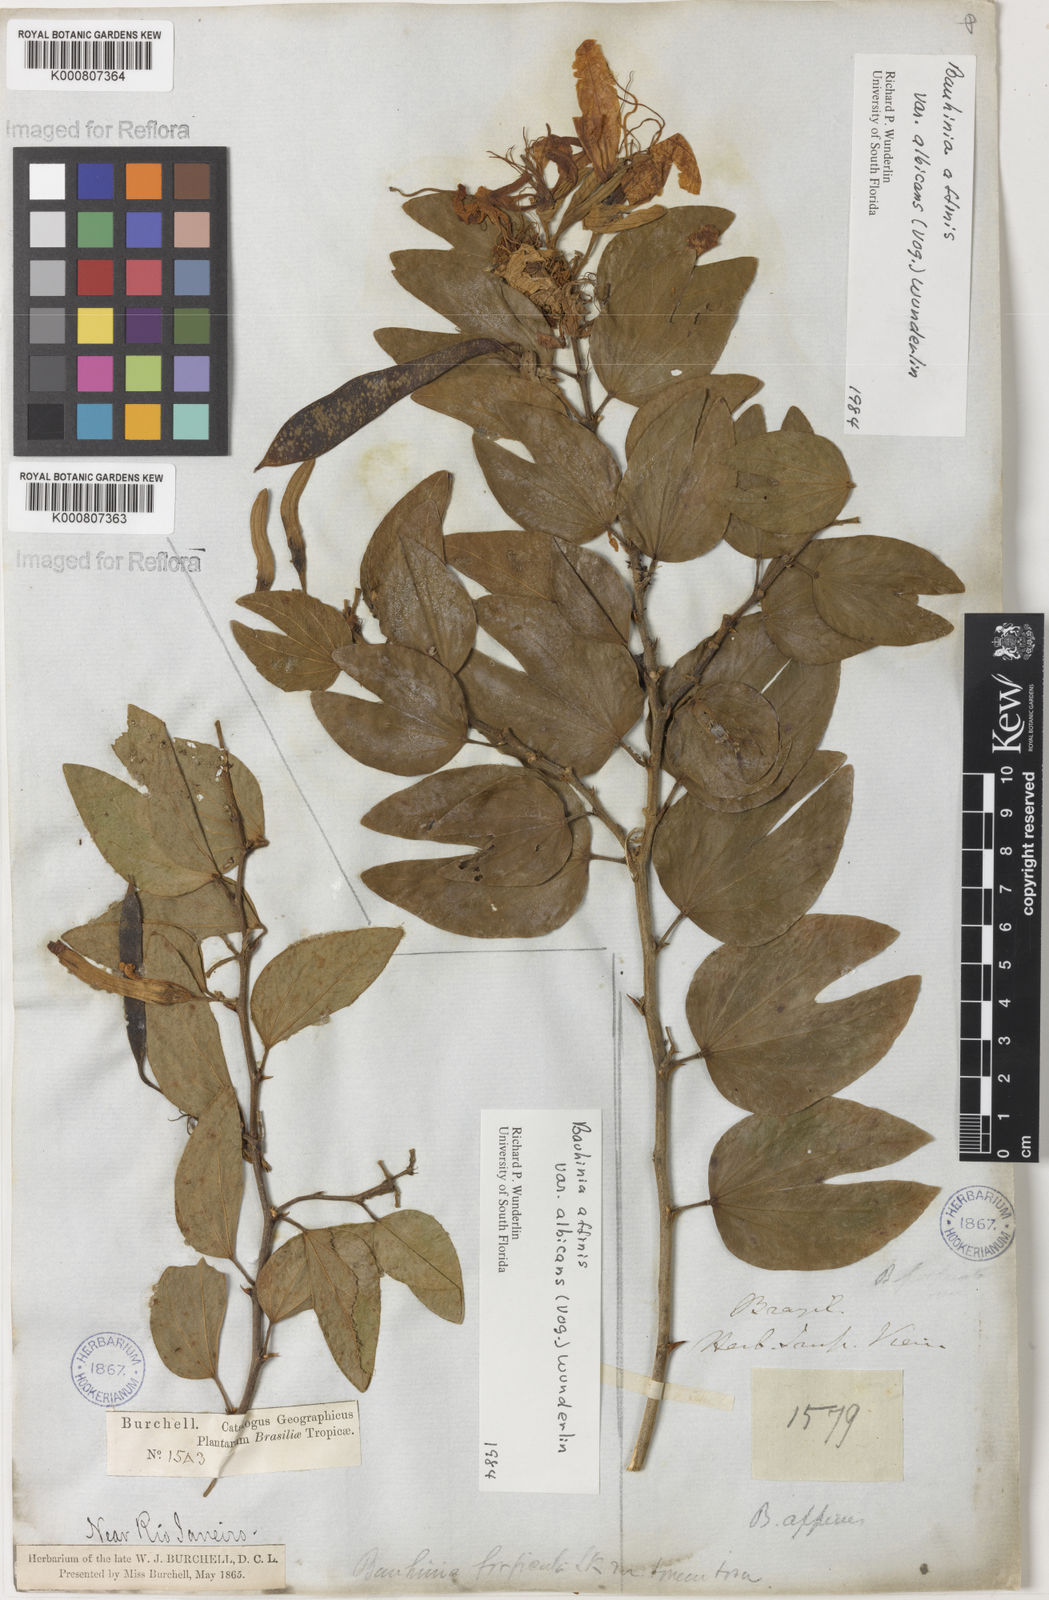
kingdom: Plantae
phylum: Tracheophyta
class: Magnoliopsida
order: Fabales
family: Fabaceae
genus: Bauhinia
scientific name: Bauhinia affinis
